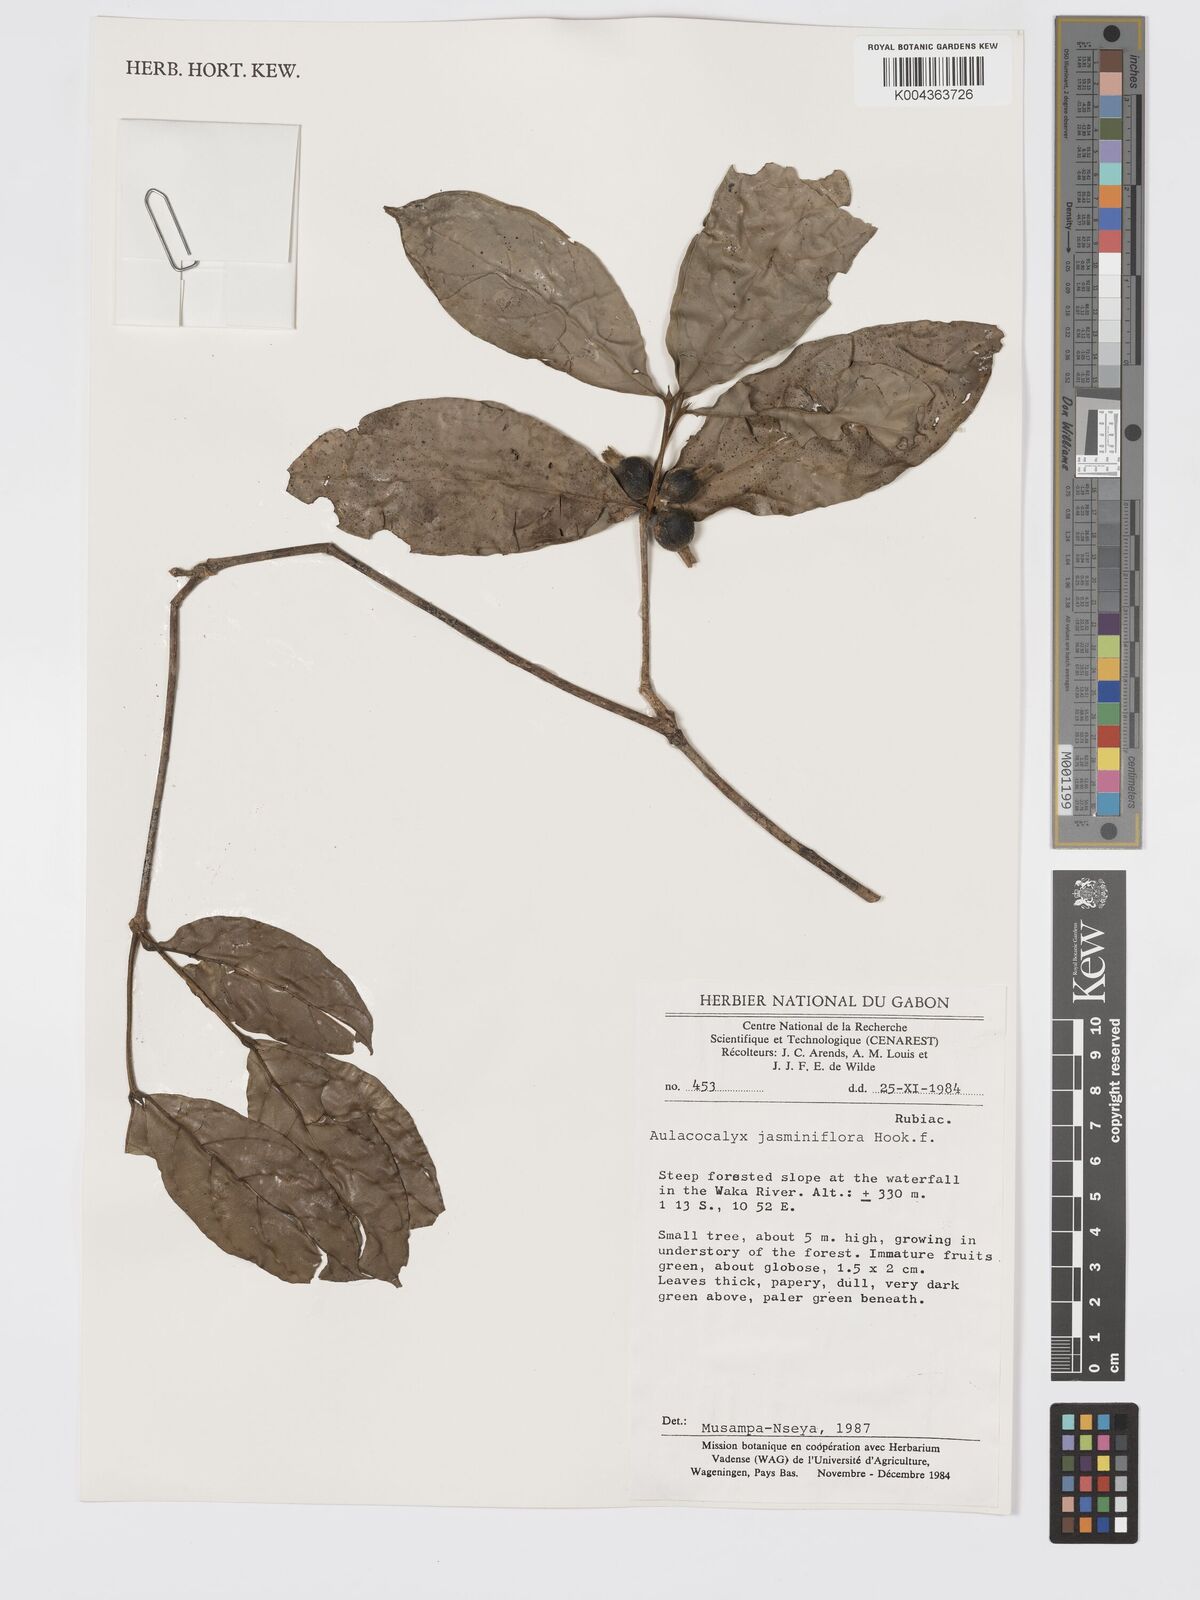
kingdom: Plantae
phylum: Tracheophyta
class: Magnoliopsida
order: Gentianales
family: Rubiaceae
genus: Aulacocalyx
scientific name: Aulacocalyx jasminiflora
